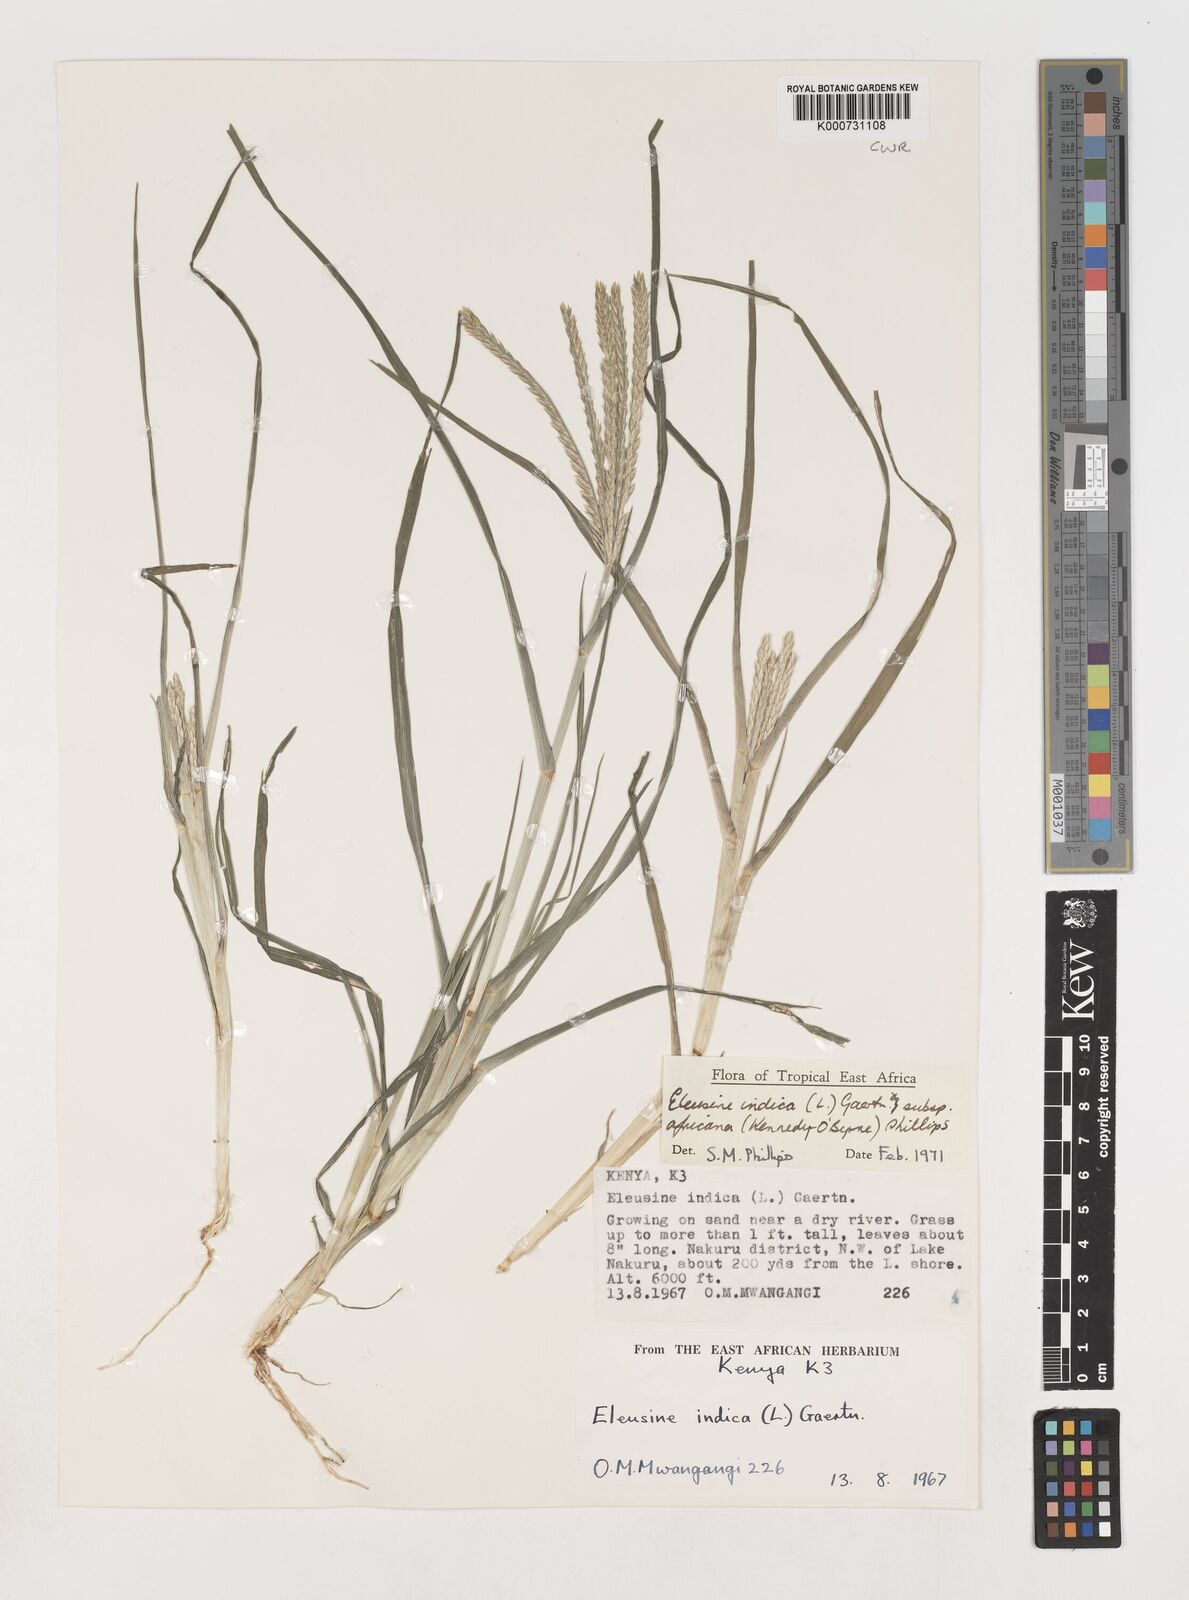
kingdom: Plantae
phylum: Tracheophyta
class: Liliopsida
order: Poales
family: Poaceae
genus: Eleusine
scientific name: Eleusine africana
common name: Wild african finger millet
